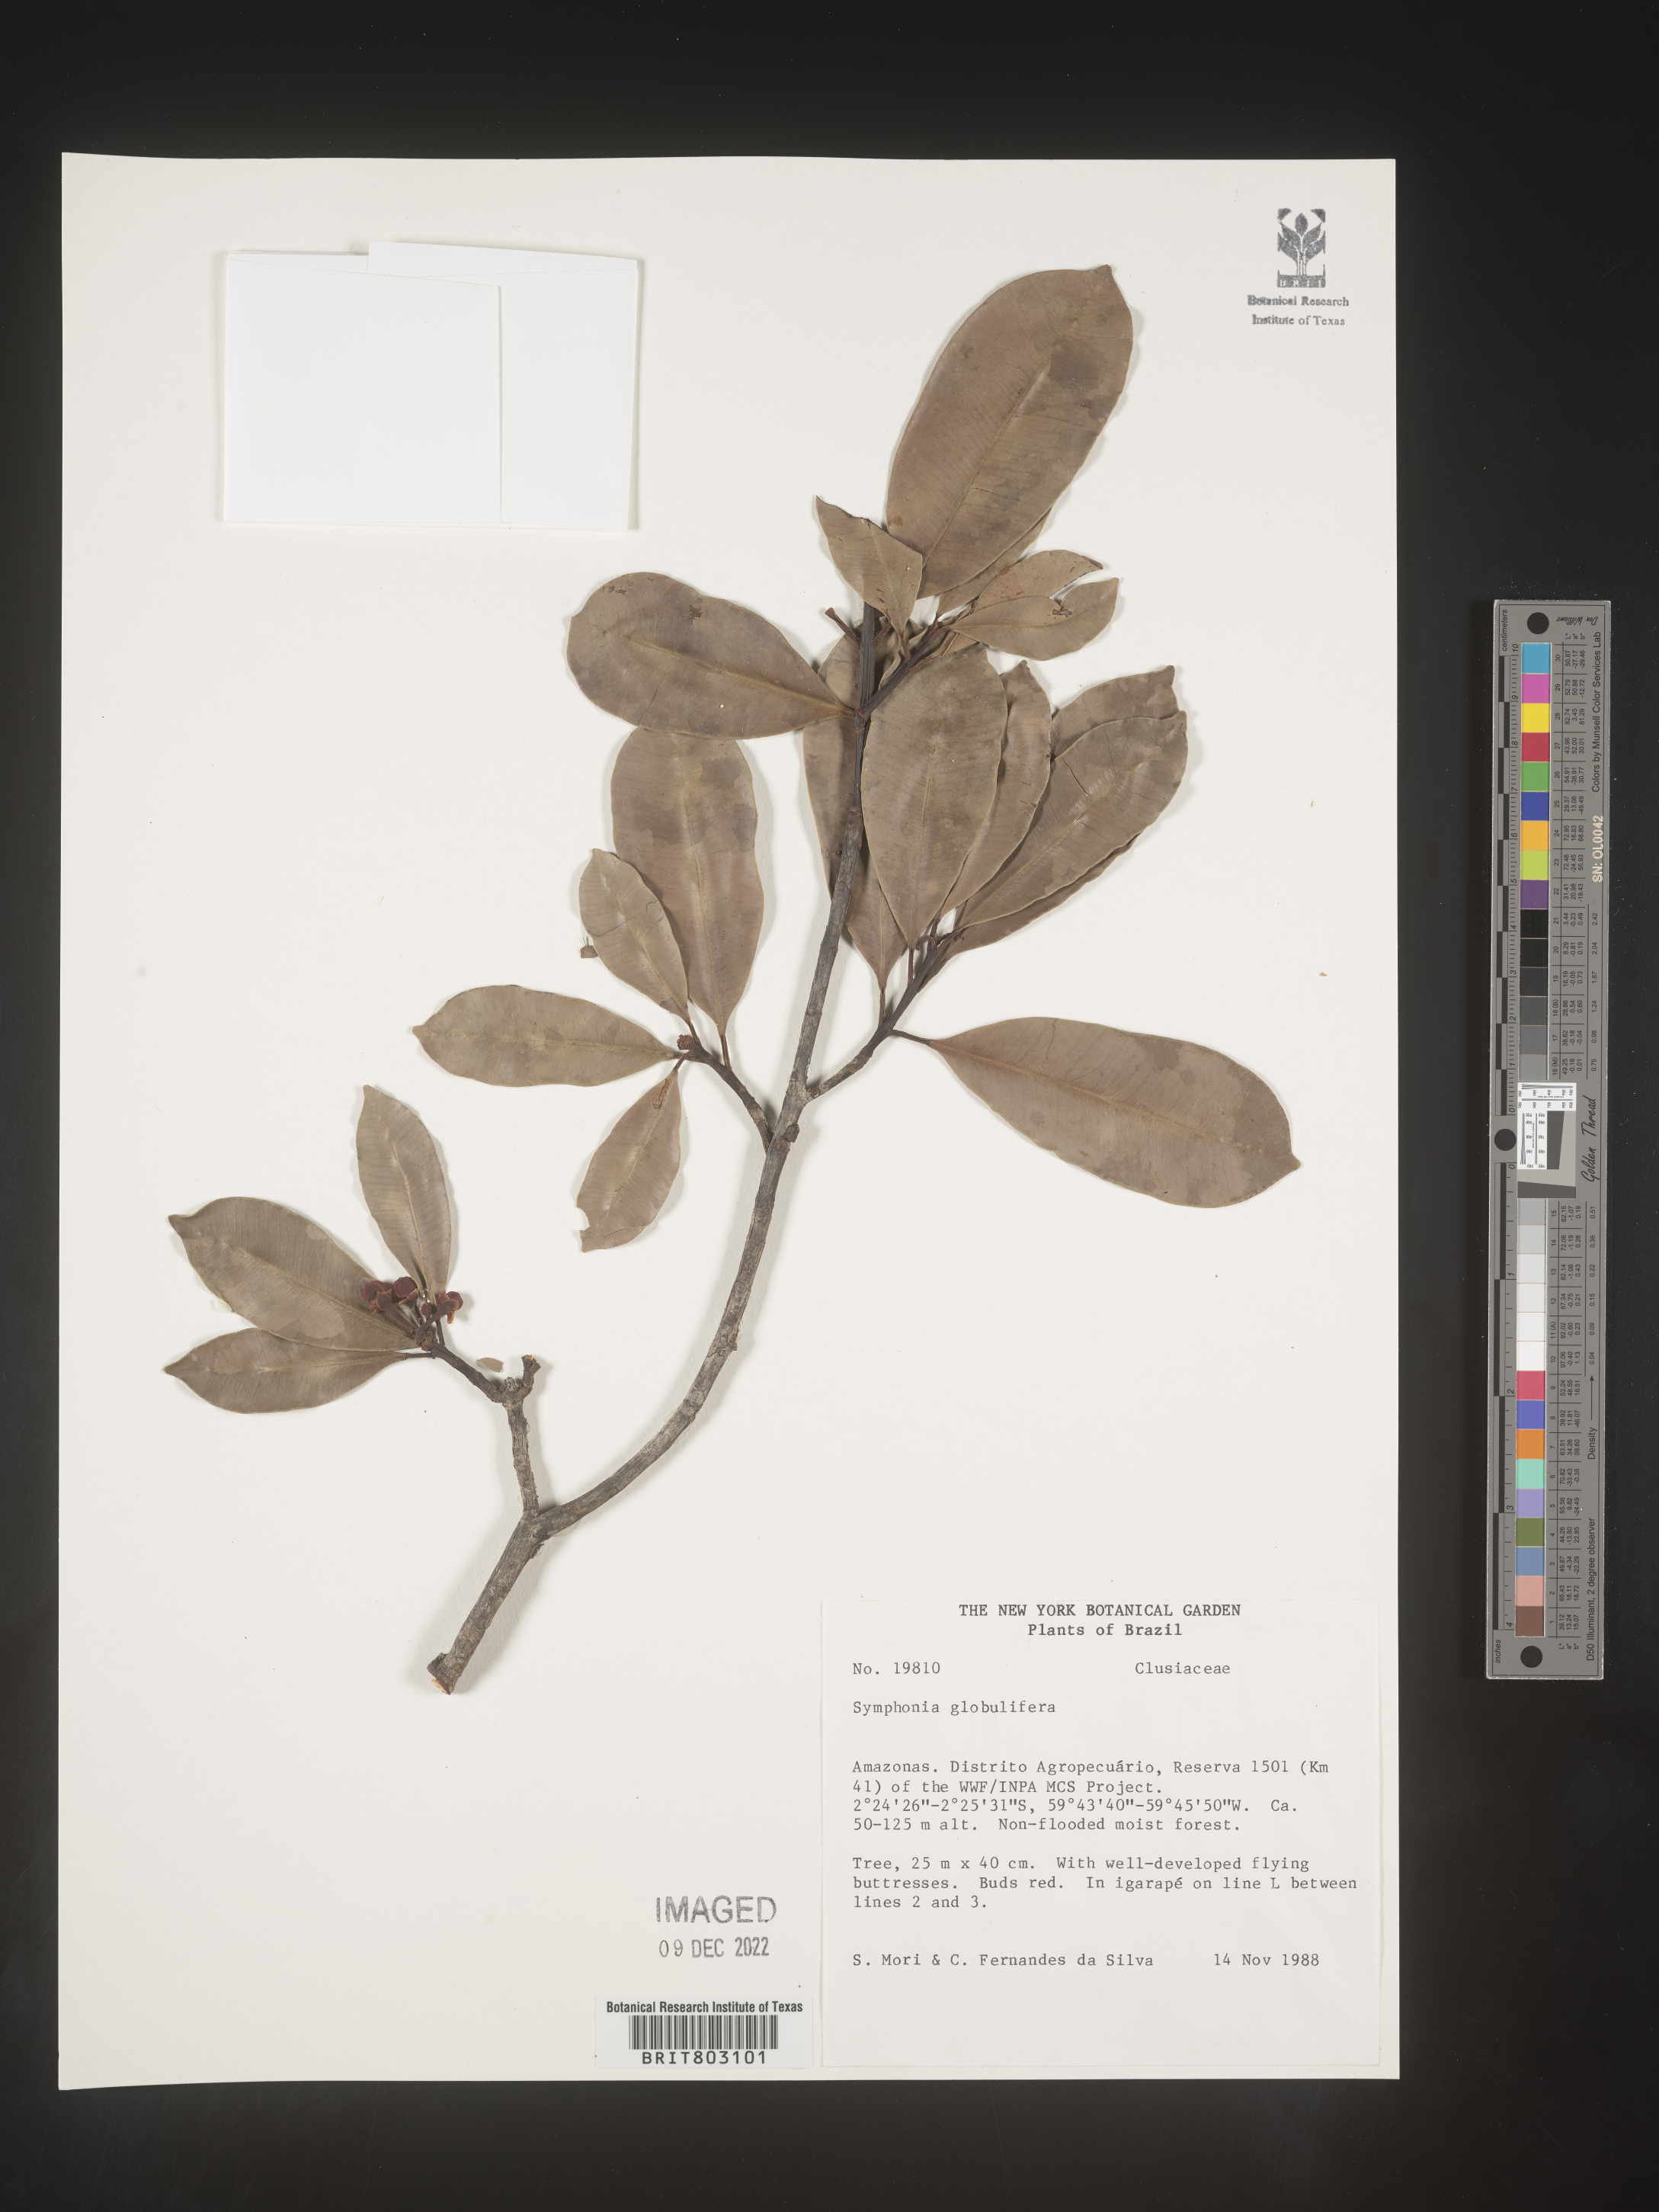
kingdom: Plantae
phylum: Tracheophyta
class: Magnoliopsida
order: Malpighiales
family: Clusiaceae
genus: Symphonia
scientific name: Symphonia
